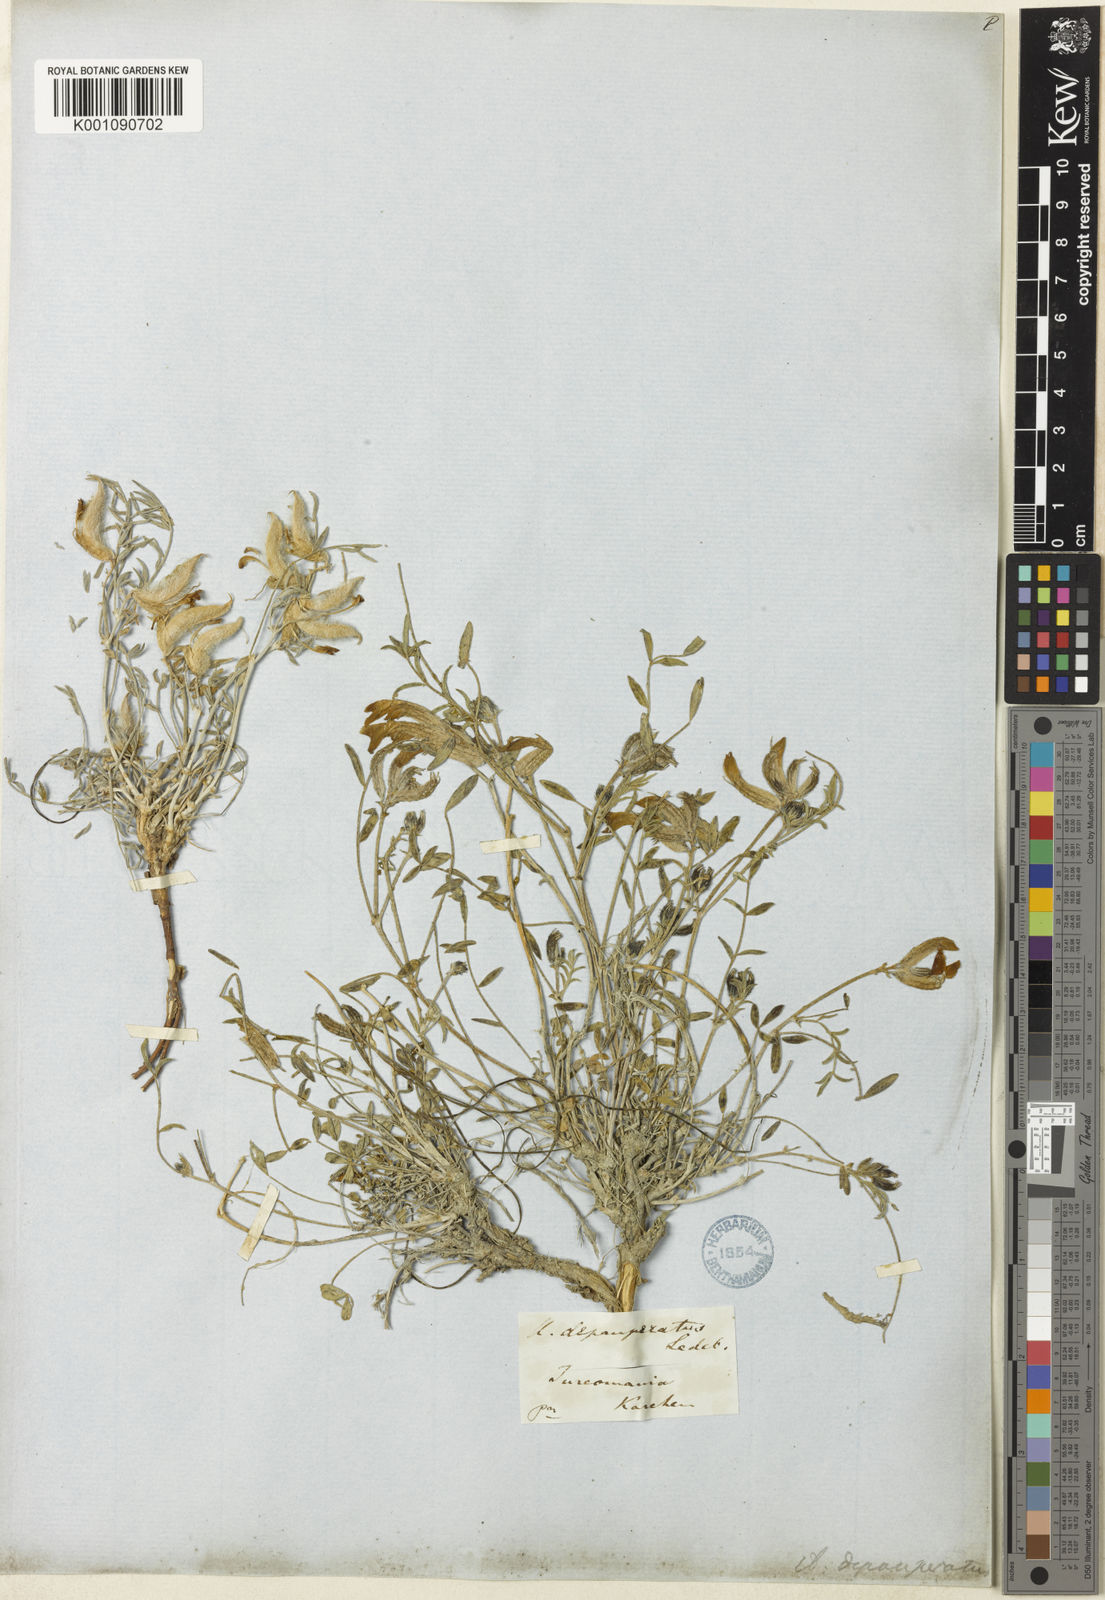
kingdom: Plantae
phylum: Tracheophyta
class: Magnoliopsida
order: Fabales
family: Fabaceae
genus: Astragalus
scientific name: Astragalus
